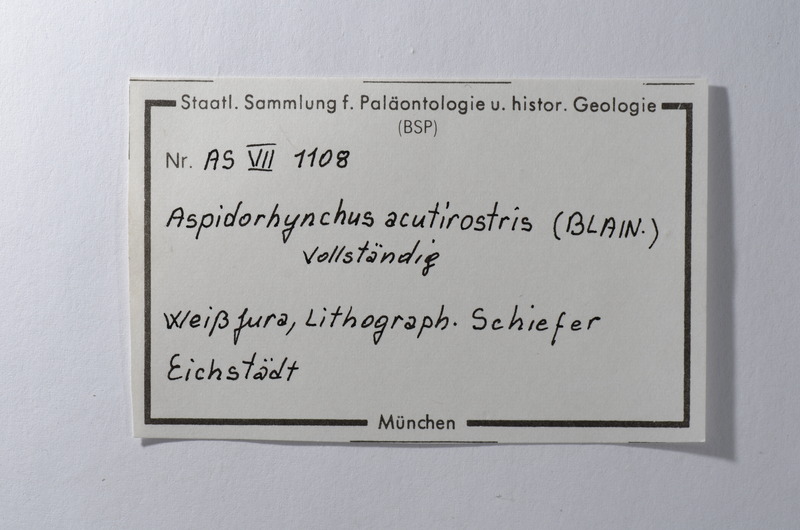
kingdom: Animalia
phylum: Chordata
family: Aspidorhynchidae
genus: Aspidorhynchus
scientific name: Aspidorhynchus acutirostris
